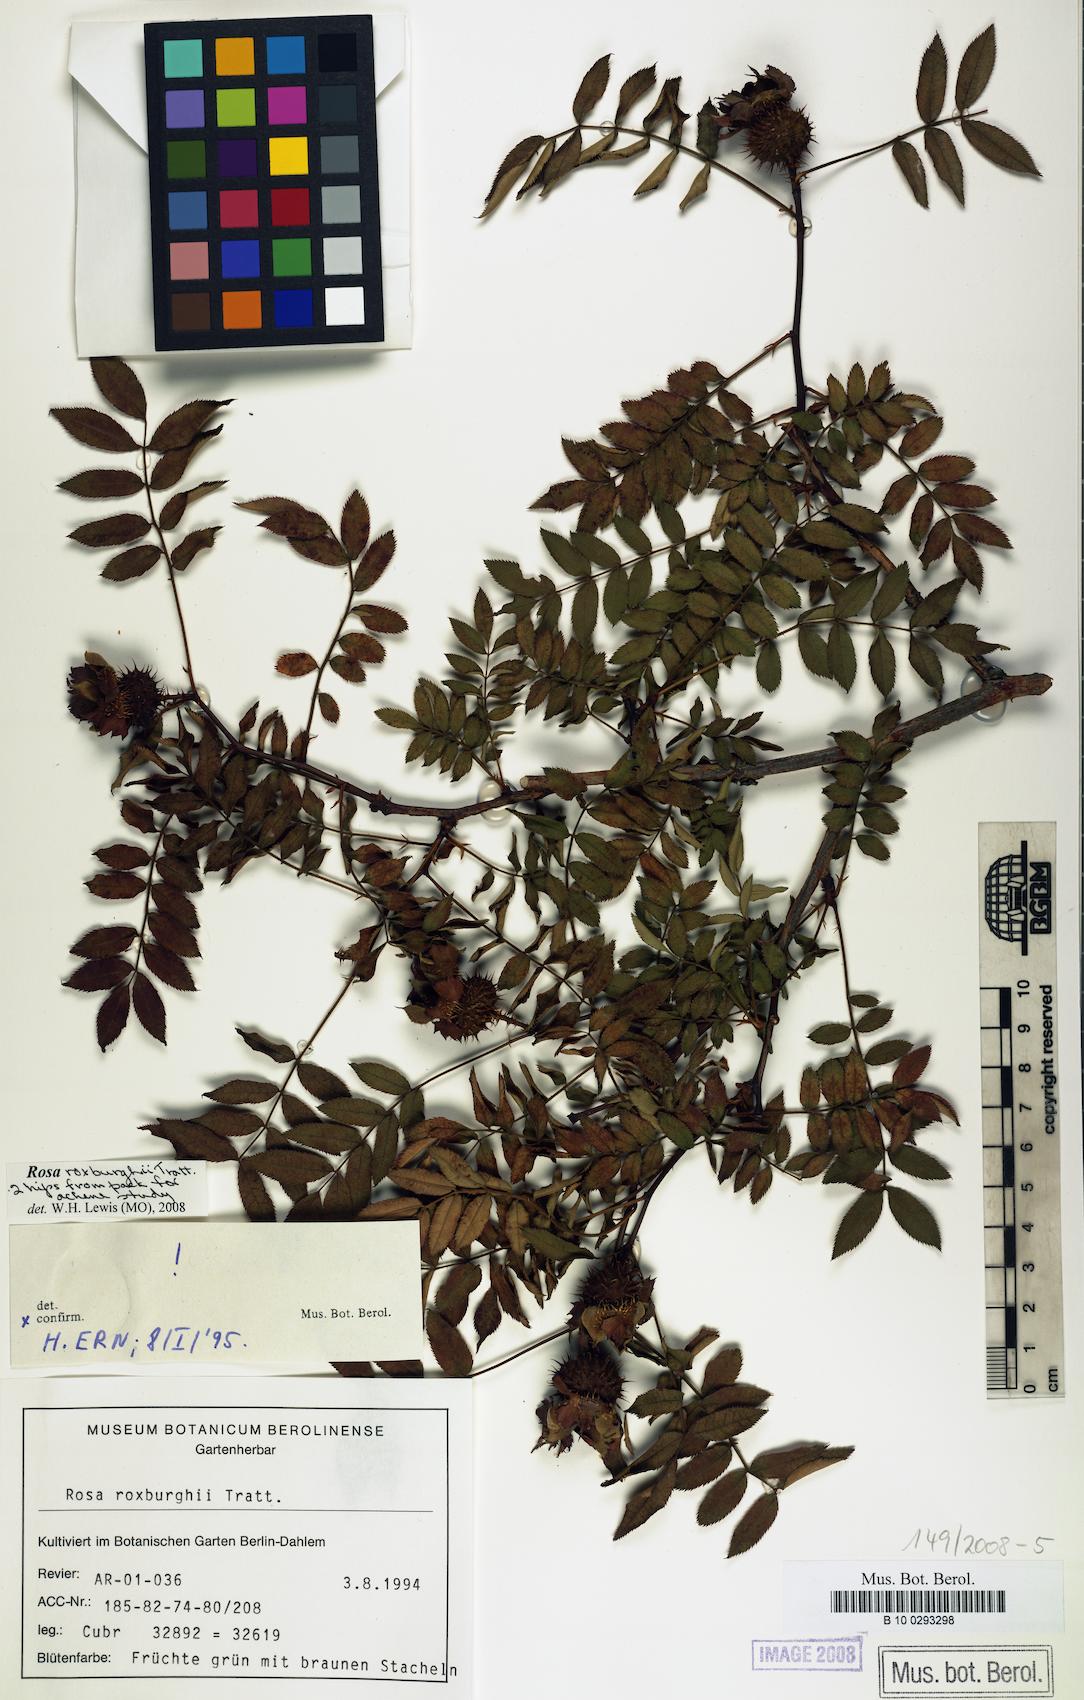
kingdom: Plantae
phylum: Tracheophyta
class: Magnoliopsida
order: Rosales
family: Rosaceae
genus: Rosa
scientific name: Rosa roxburghii
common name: Chinquapin rose
